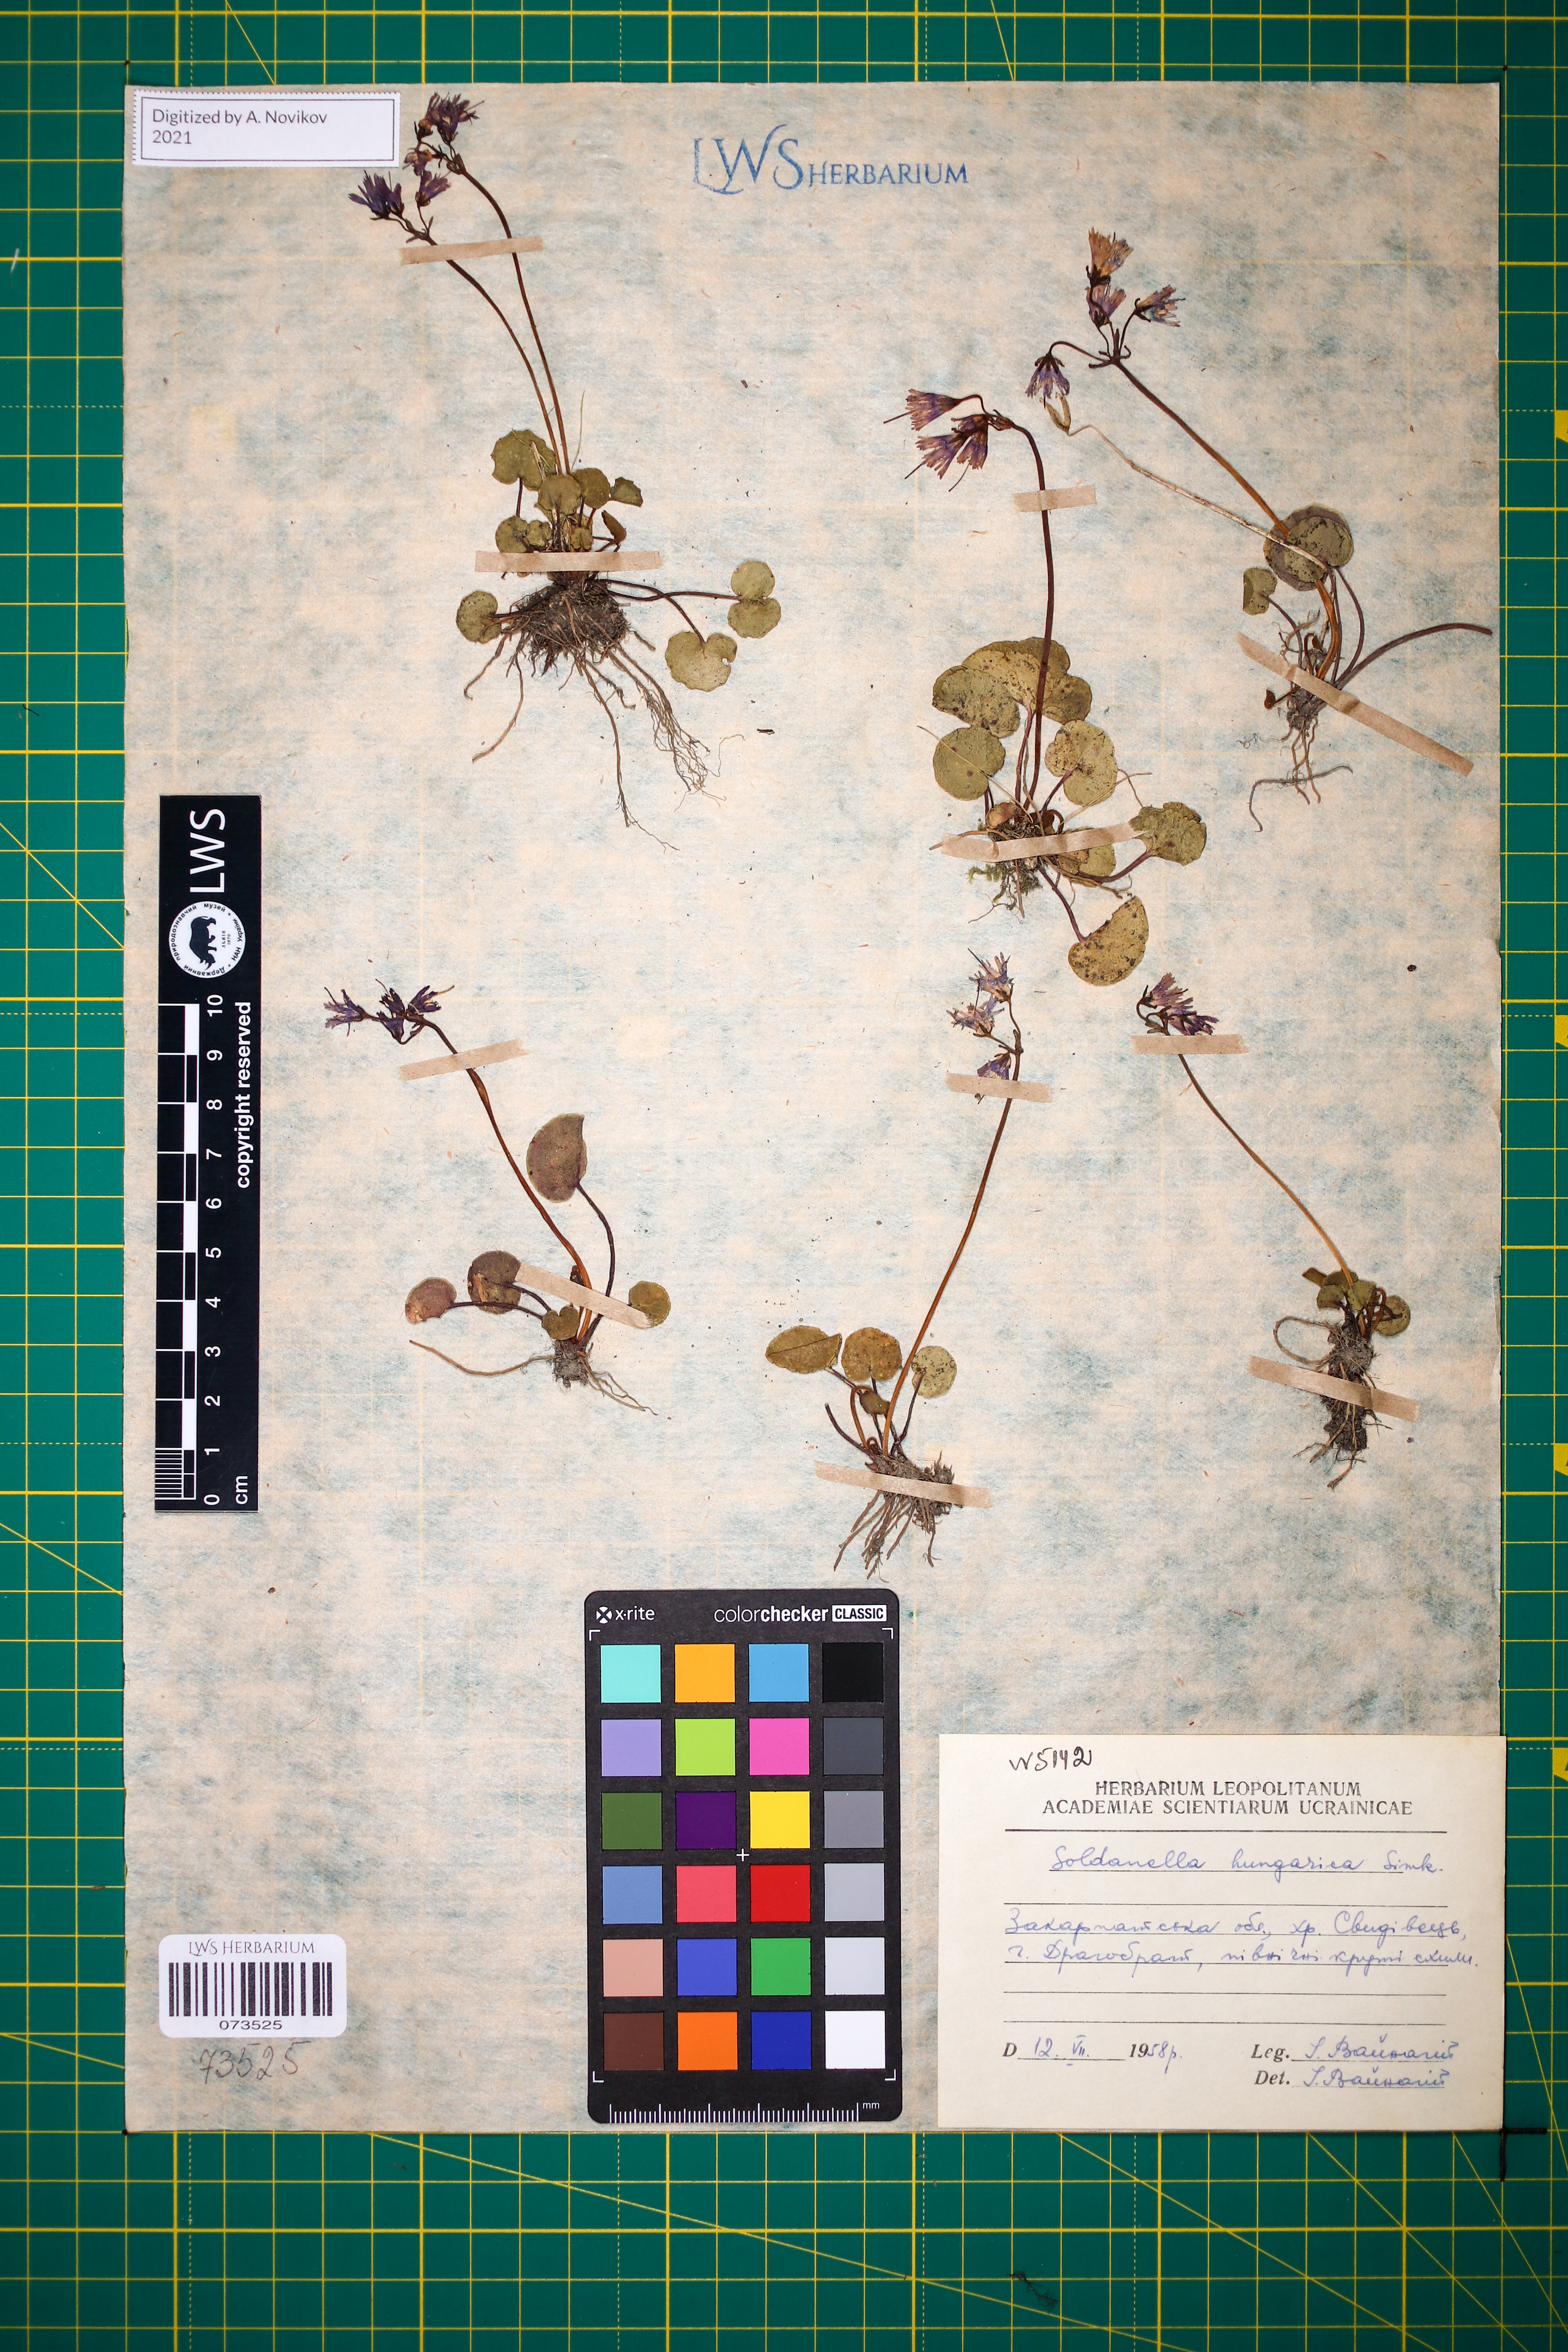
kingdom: Plantae
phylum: Tracheophyta
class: Magnoliopsida
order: Ericales
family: Primulaceae
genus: Soldanella
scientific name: Soldanella hungarica
